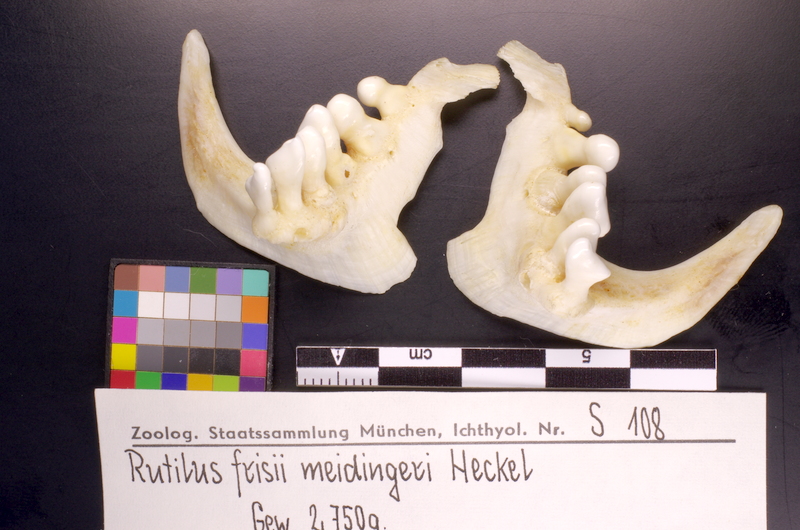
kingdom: Animalia
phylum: Chordata
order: Cypriniformes
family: Cyprinidae
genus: Rutilus
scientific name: Rutilus meidingeri
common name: Perlfisch
